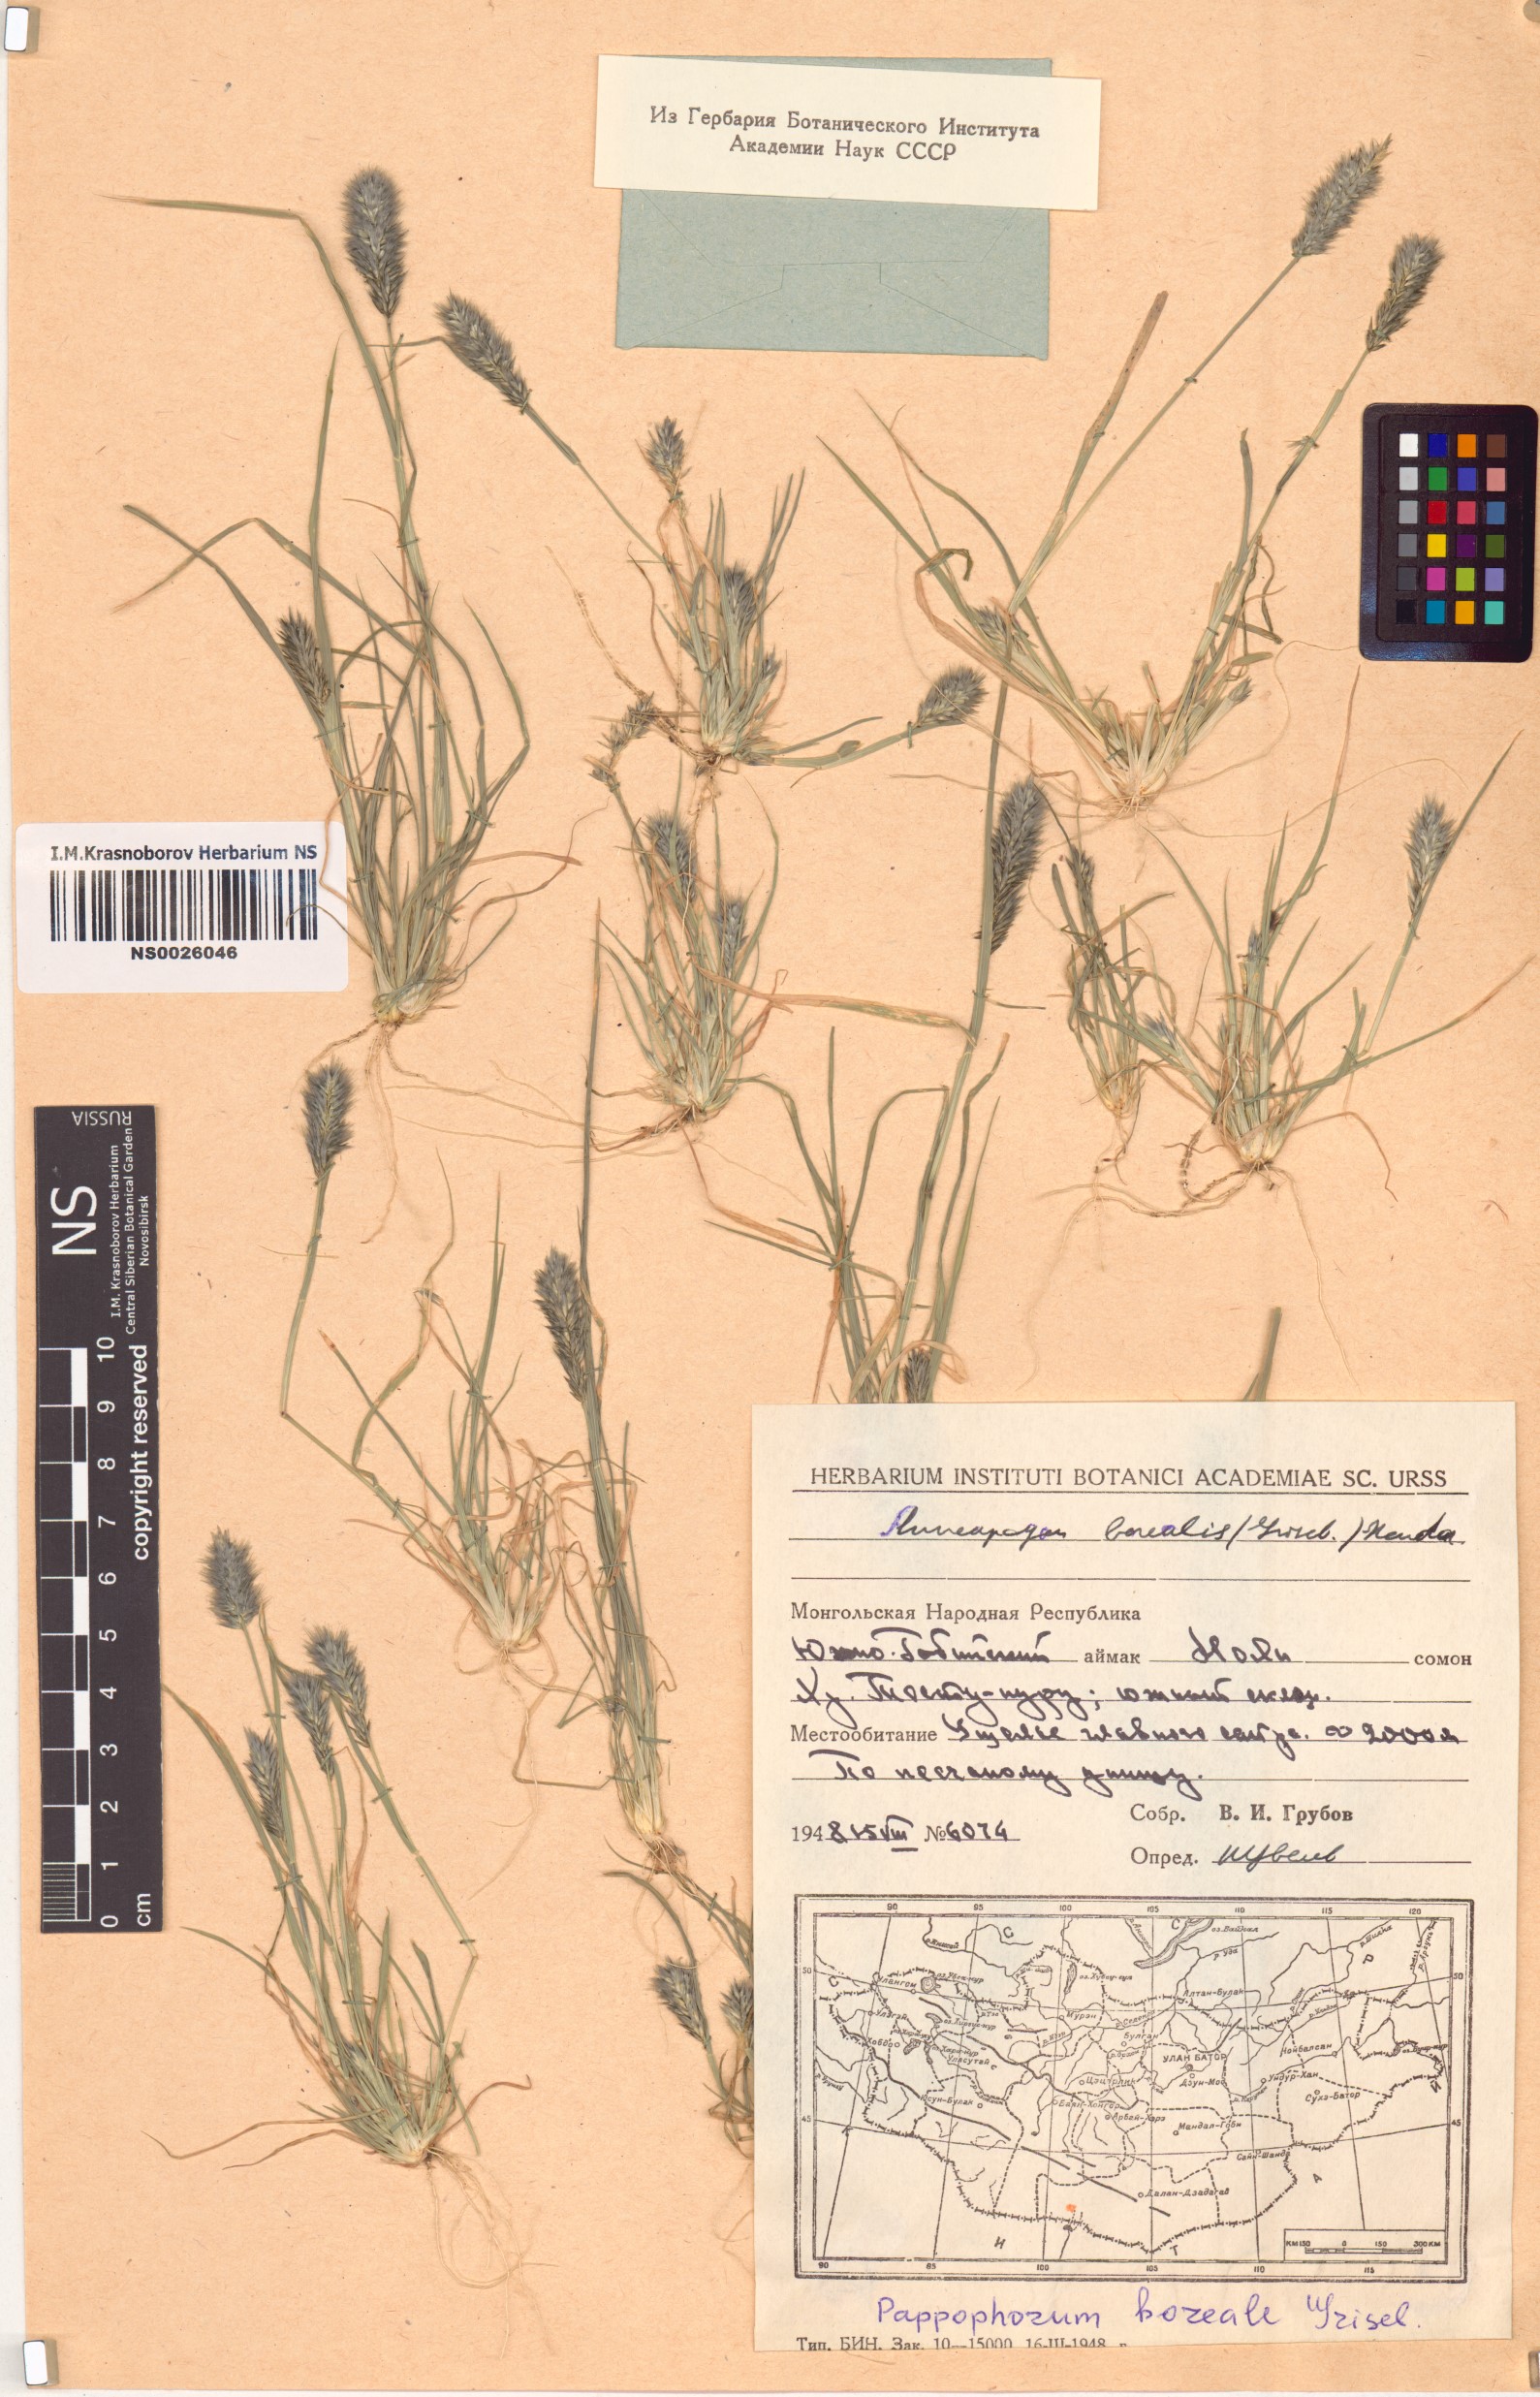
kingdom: Plantae
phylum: Tracheophyta
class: Liliopsida
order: Poales
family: Poaceae
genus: Enneapogon
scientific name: Enneapogon desvauxii
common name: Feather pappus grass
